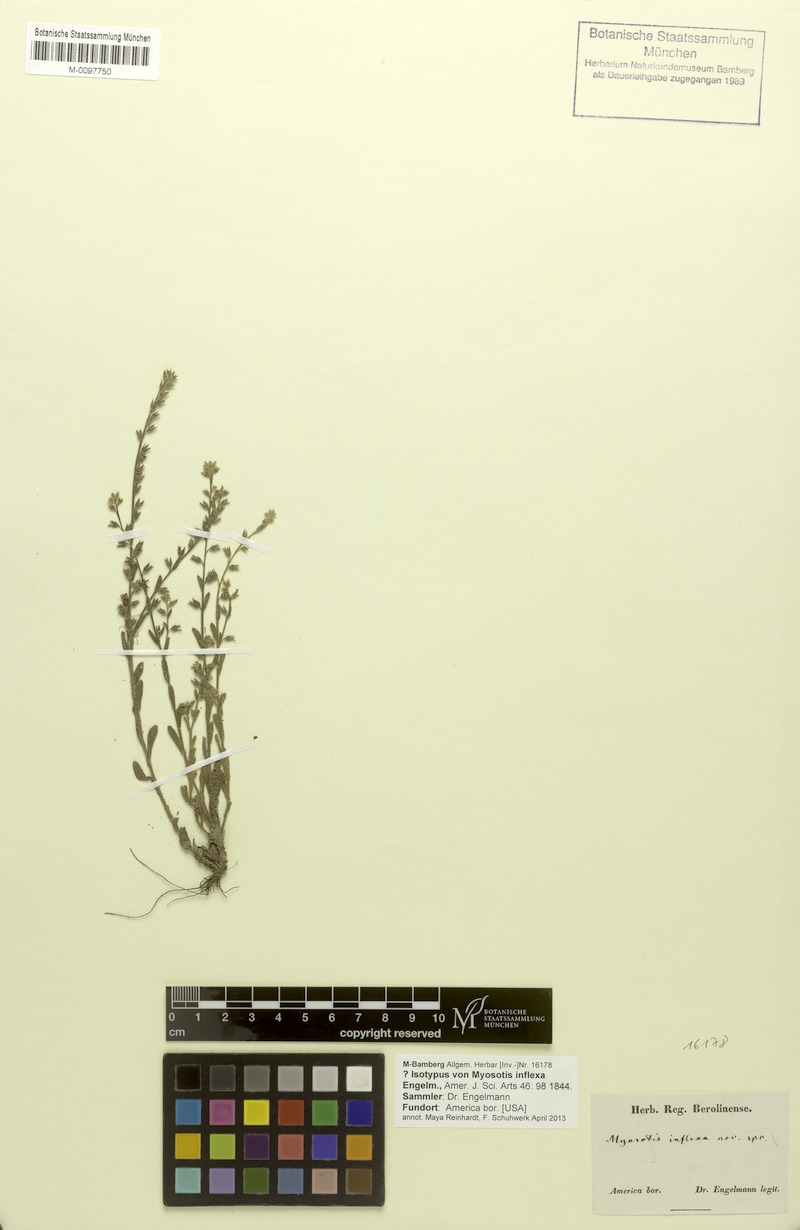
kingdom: Plantae
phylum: Tracheophyta
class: Magnoliopsida
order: Boraginales
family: Boraginaceae
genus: Myosotis
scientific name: Myosotis verna
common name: Early forget-me-not
